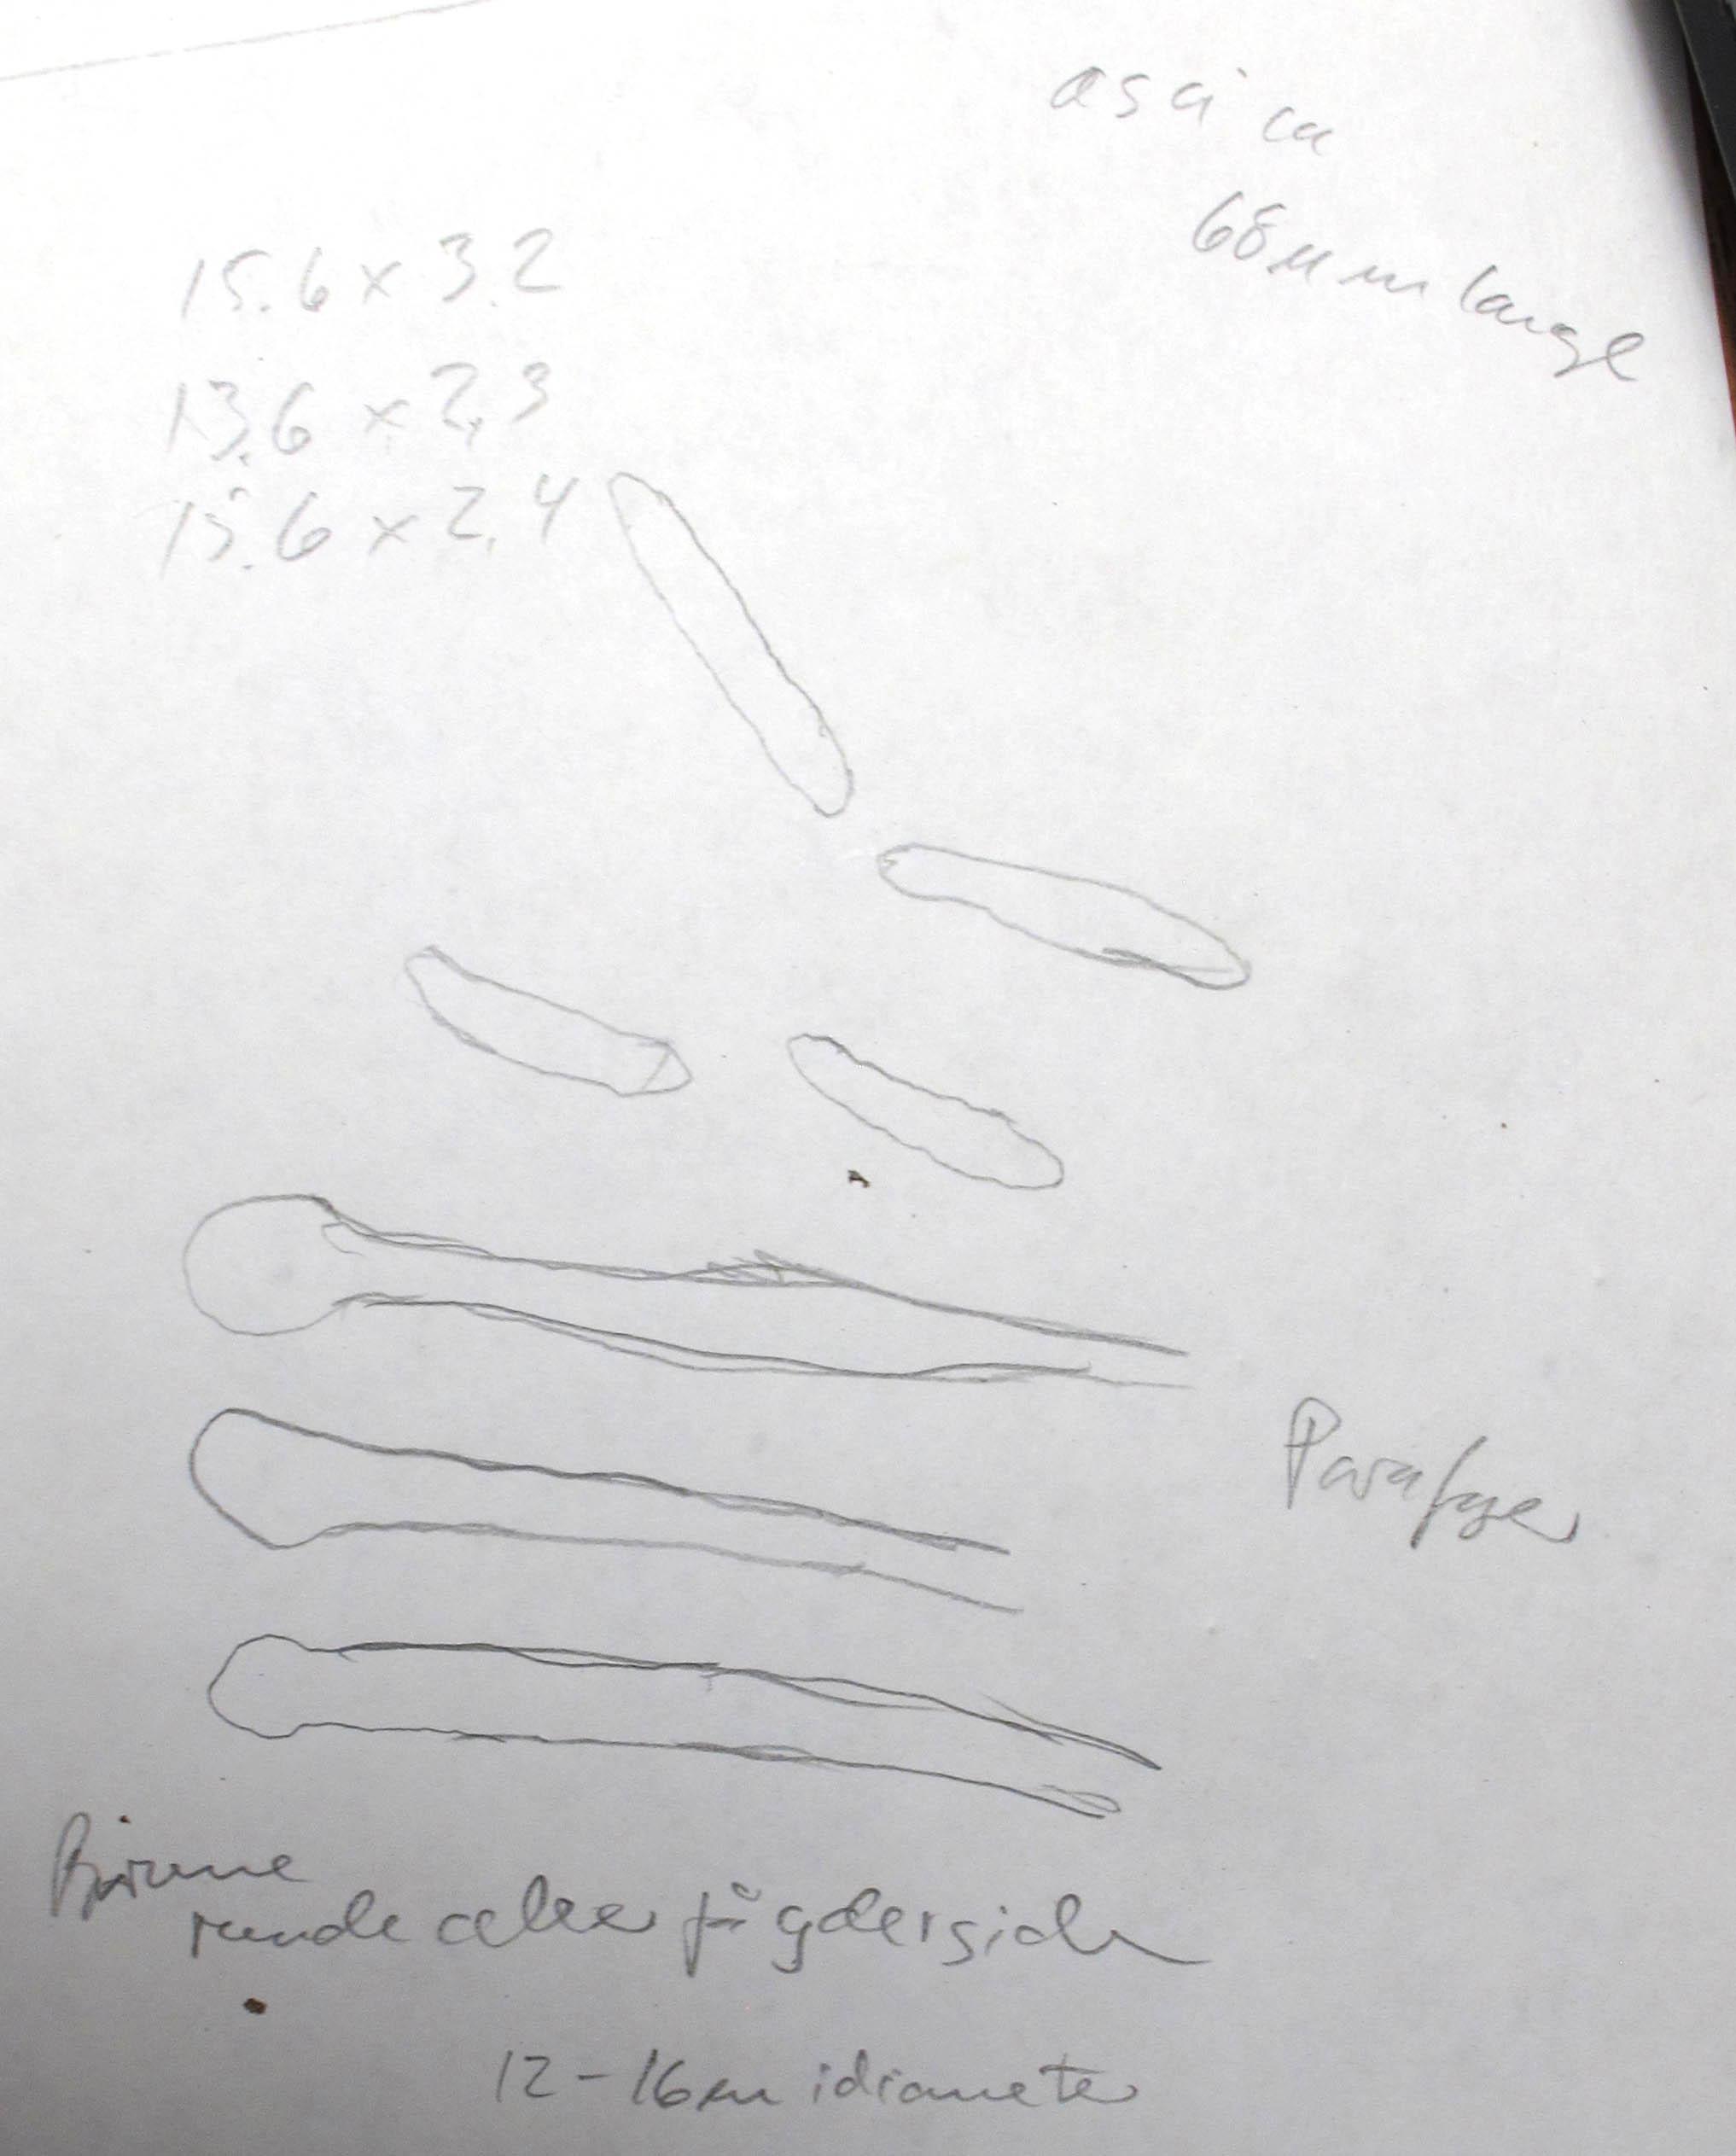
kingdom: Fungi
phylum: Ascomycota
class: Leotiomycetes
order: Helotiales
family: Mollisiaceae
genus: Mollisia
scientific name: Mollisia
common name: gråskive
